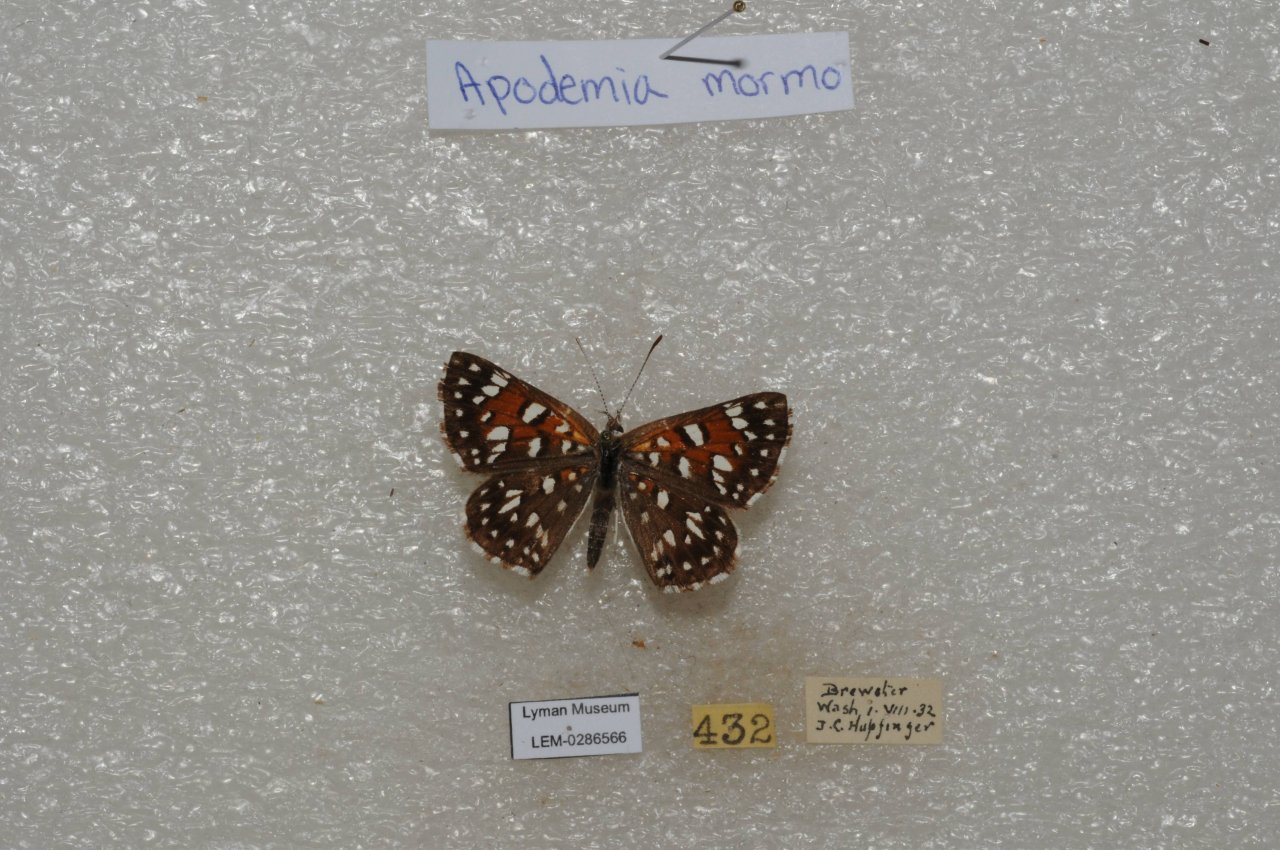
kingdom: Animalia
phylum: Arthropoda
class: Insecta
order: Lepidoptera
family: Nymphalidae
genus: Speyeria
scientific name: Speyeria mormonia
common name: Mormon Fritillary
